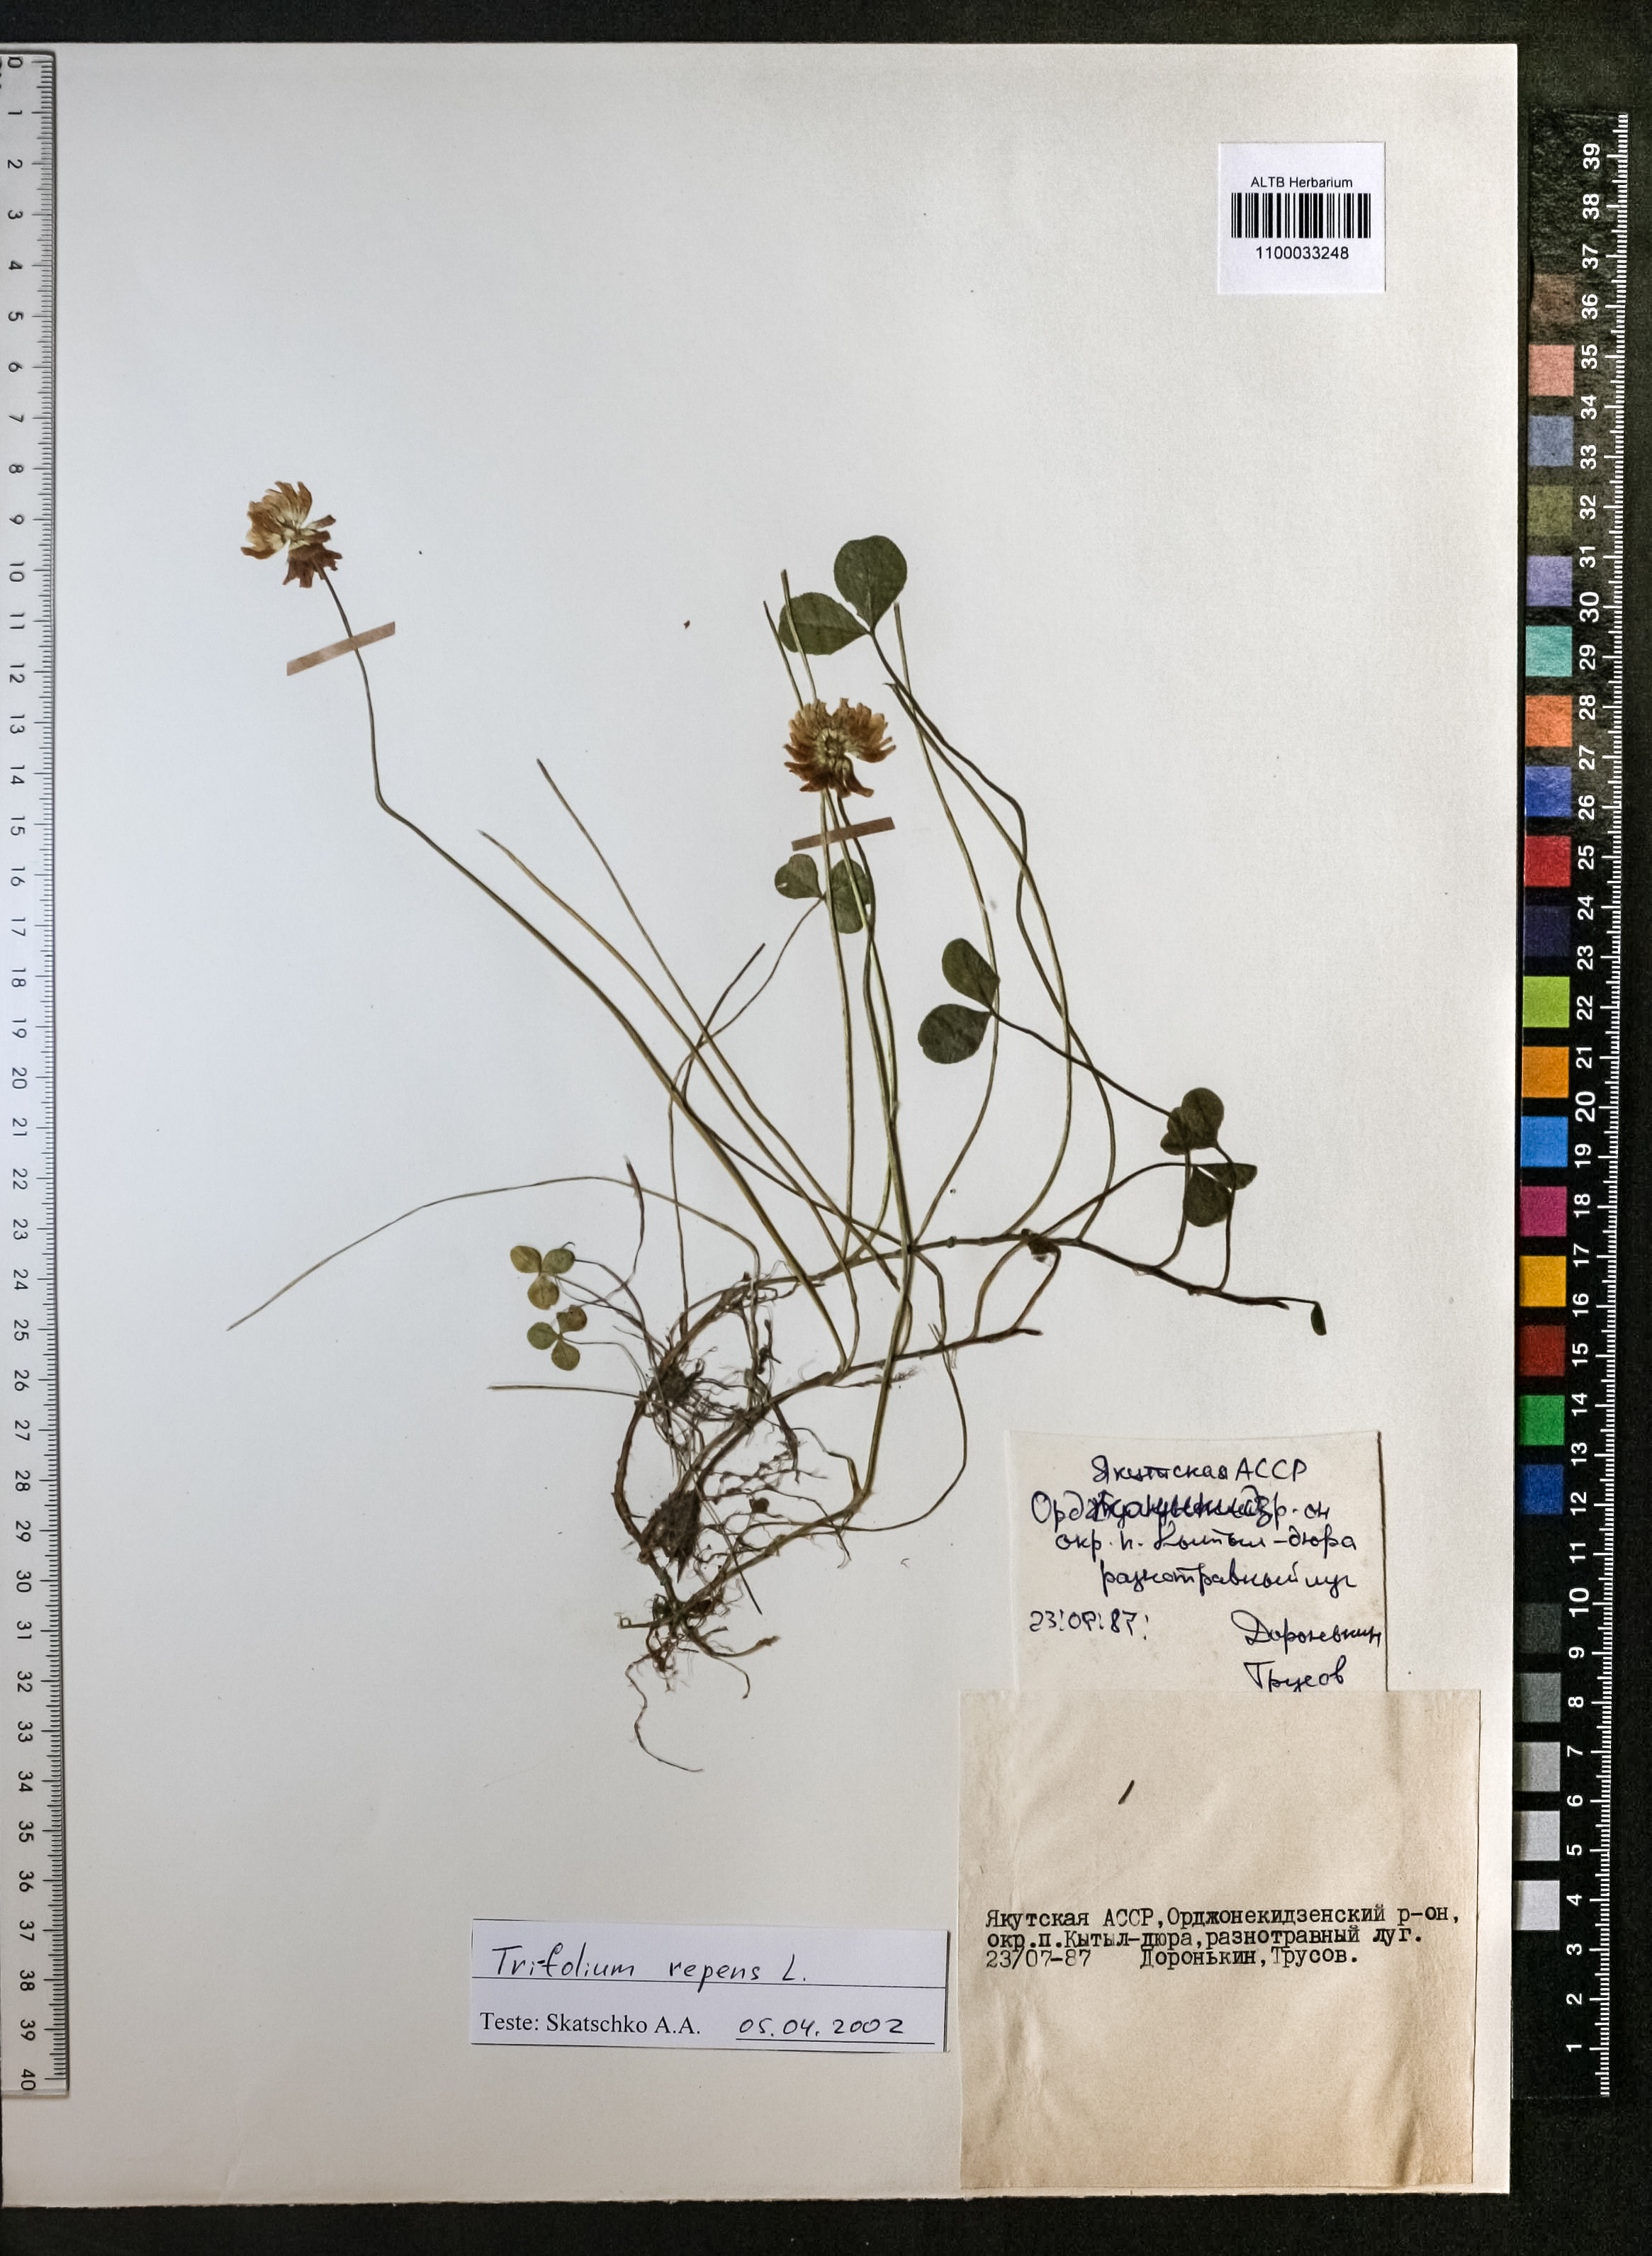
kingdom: Plantae
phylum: Tracheophyta
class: Magnoliopsida
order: Fabales
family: Fabaceae
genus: Trifolium
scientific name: Trifolium repens
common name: White clover
